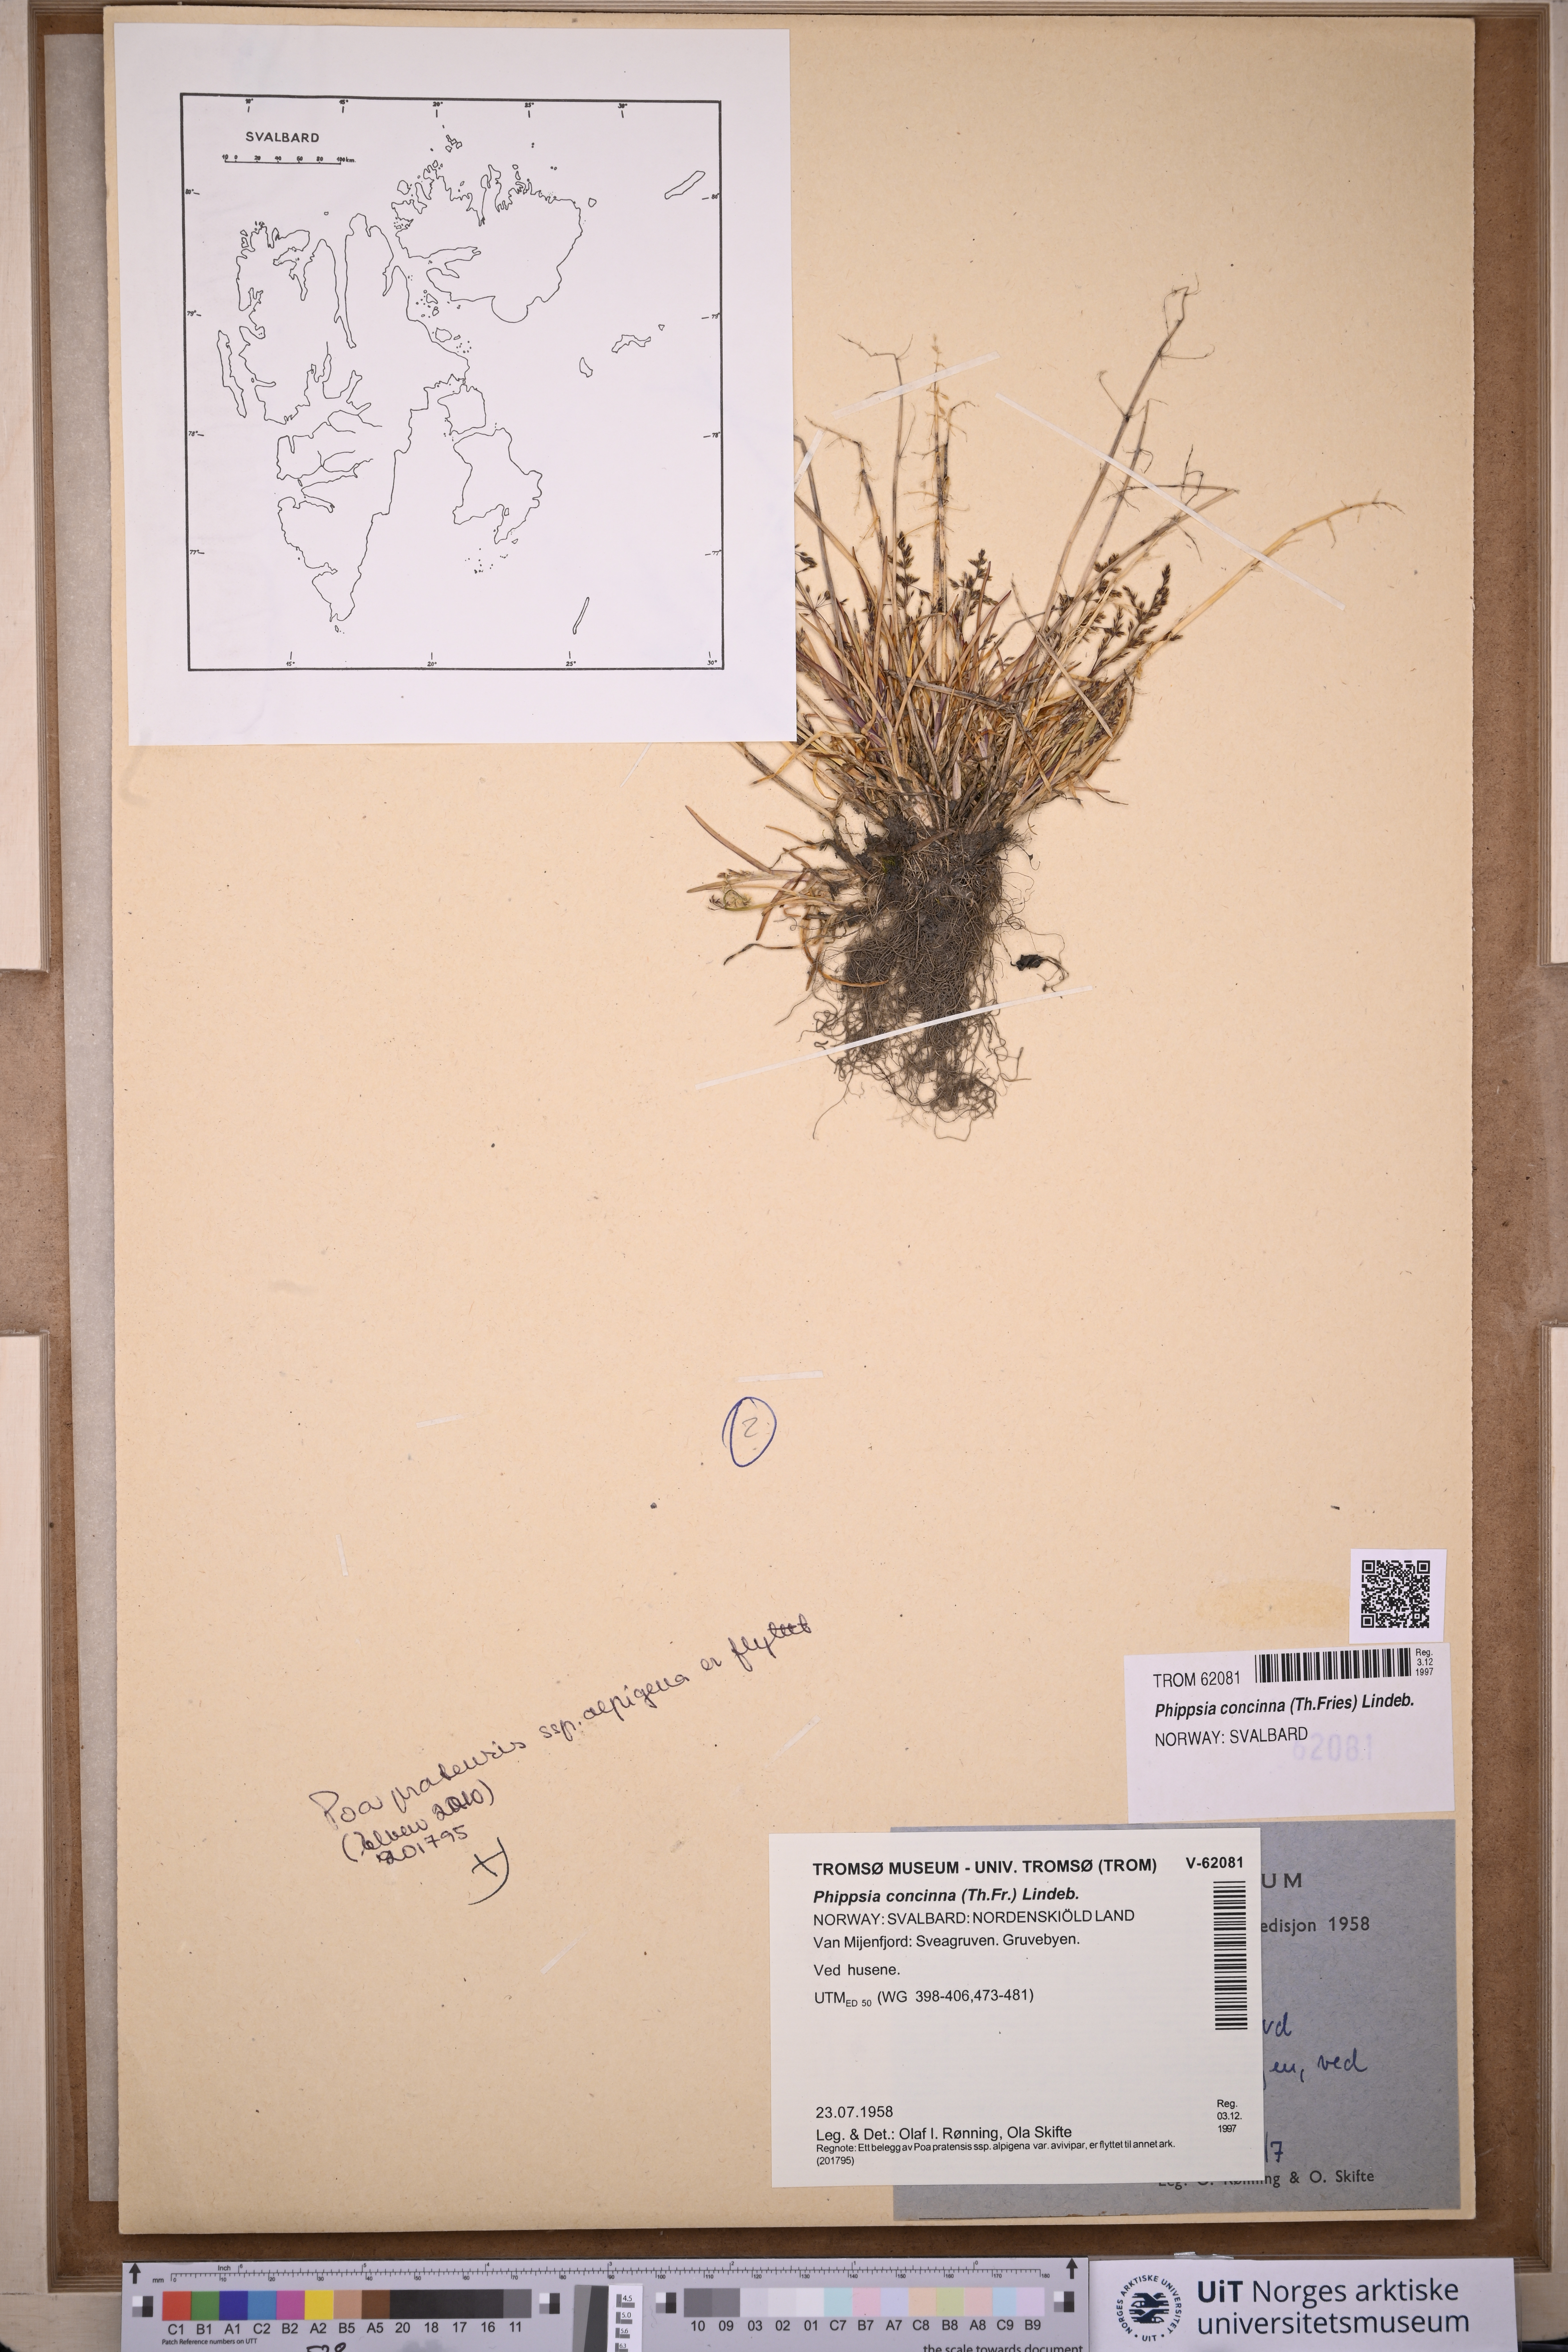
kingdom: Plantae
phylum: Tracheophyta
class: Liliopsida
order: Poales
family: Poaceae
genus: Phippsia
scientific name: Phippsia concinna
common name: Snowgrass
